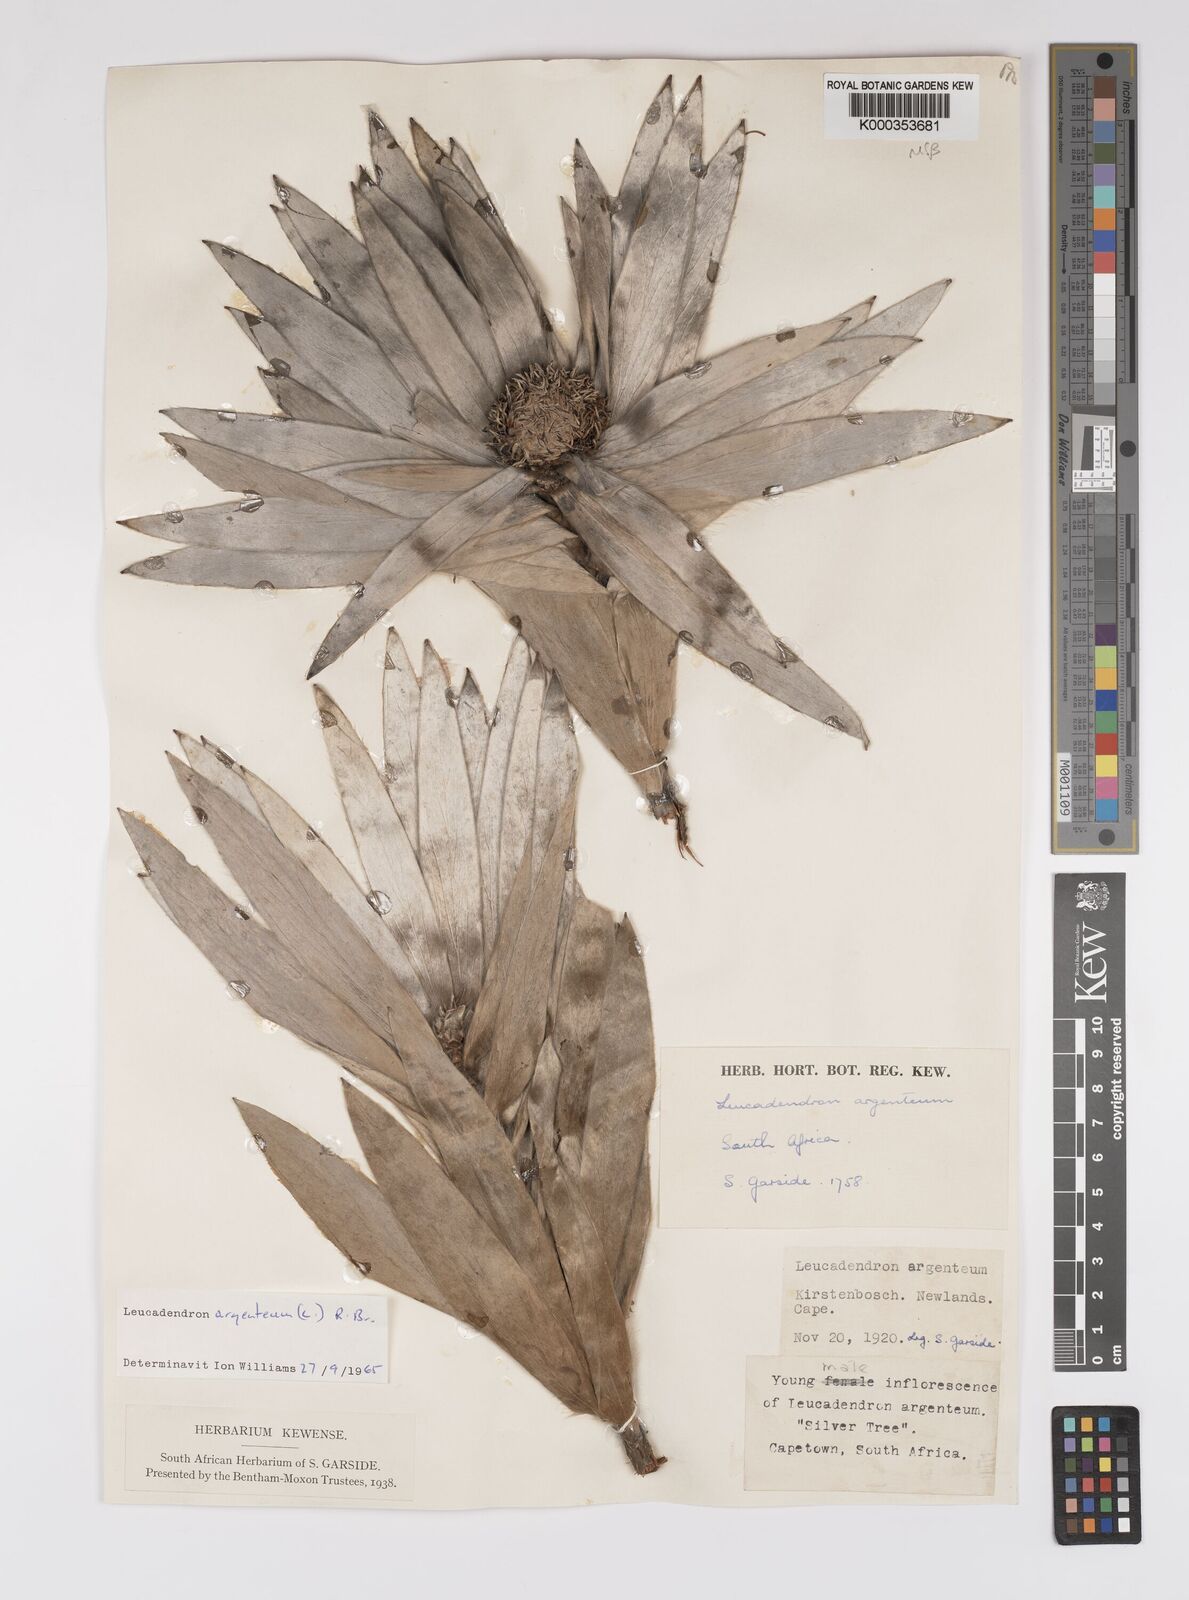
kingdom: Plantae
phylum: Tracheophyta
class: Magnoliopsida
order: Proteales
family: Proteaceae
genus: Leucadendron
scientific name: Leucadendron argenteum
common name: Cape silver tree
